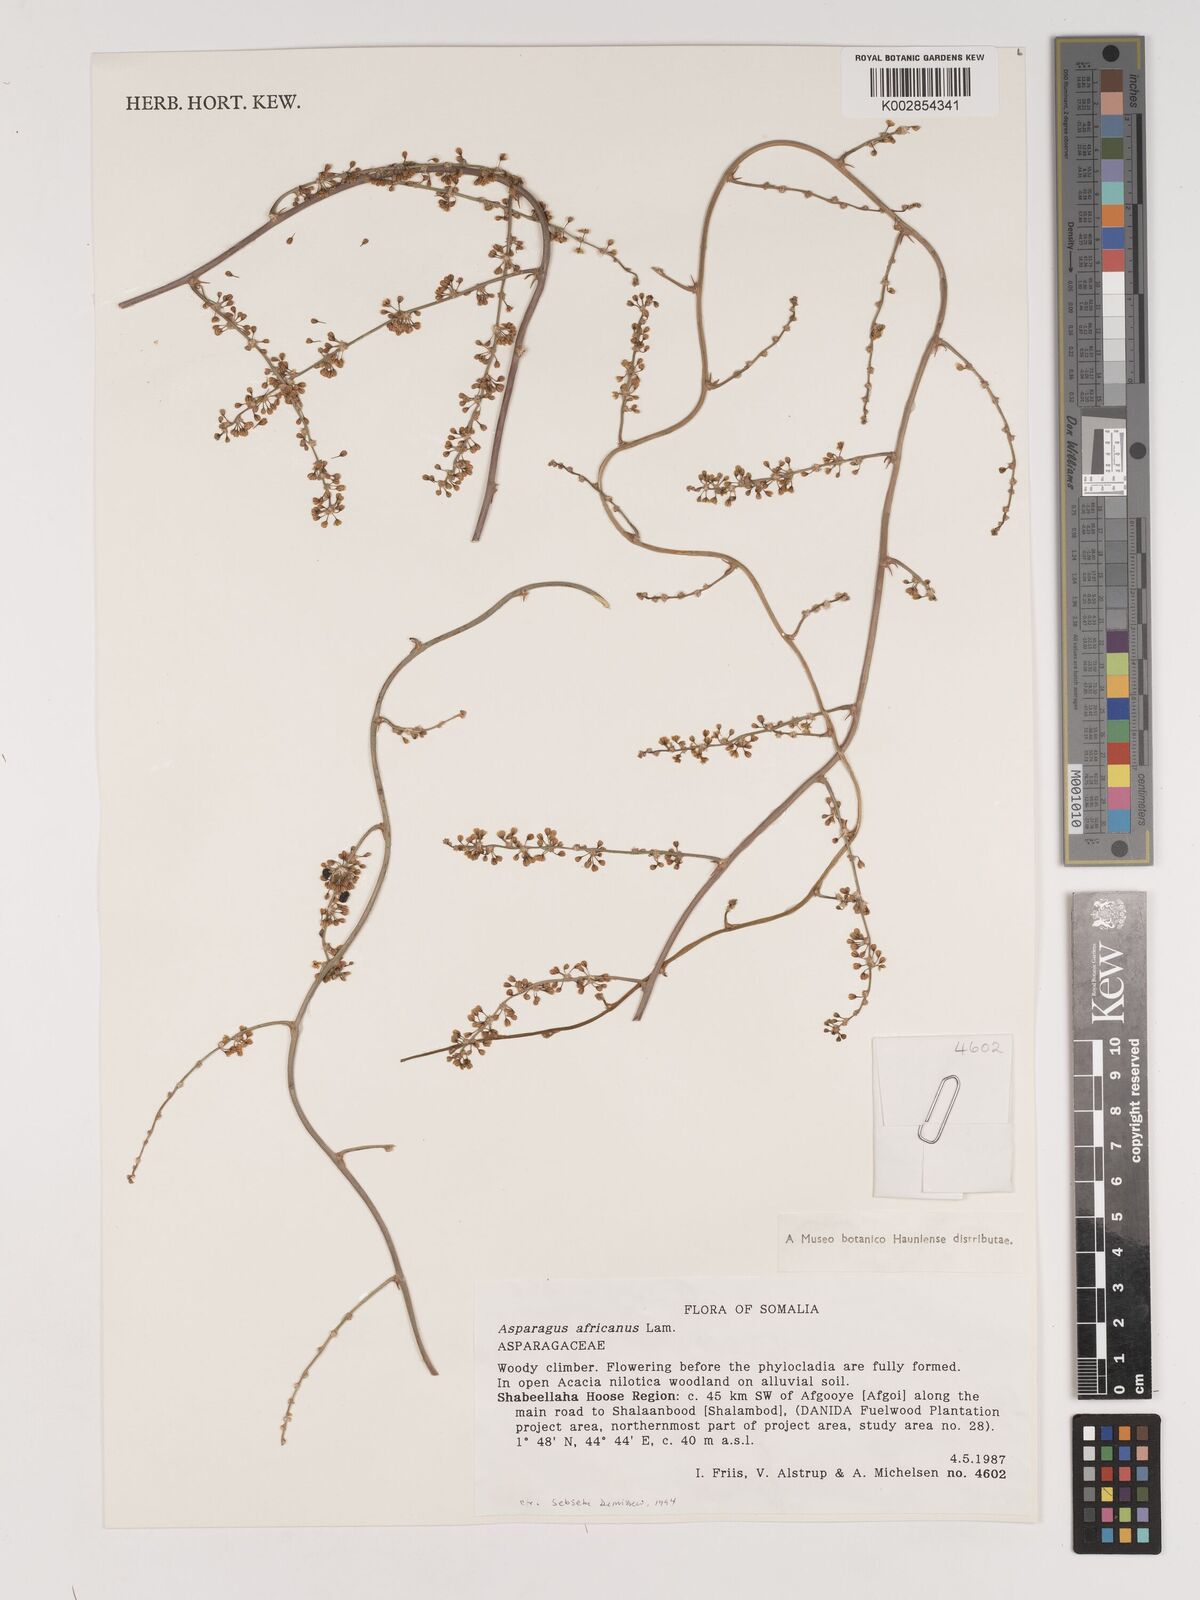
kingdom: Plantae
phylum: Tracheophyta
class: Liliopsida
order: Asparagales
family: Asparagaceae
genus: Asparagus
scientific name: Asparagus africanus
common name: Asparagus-fern
